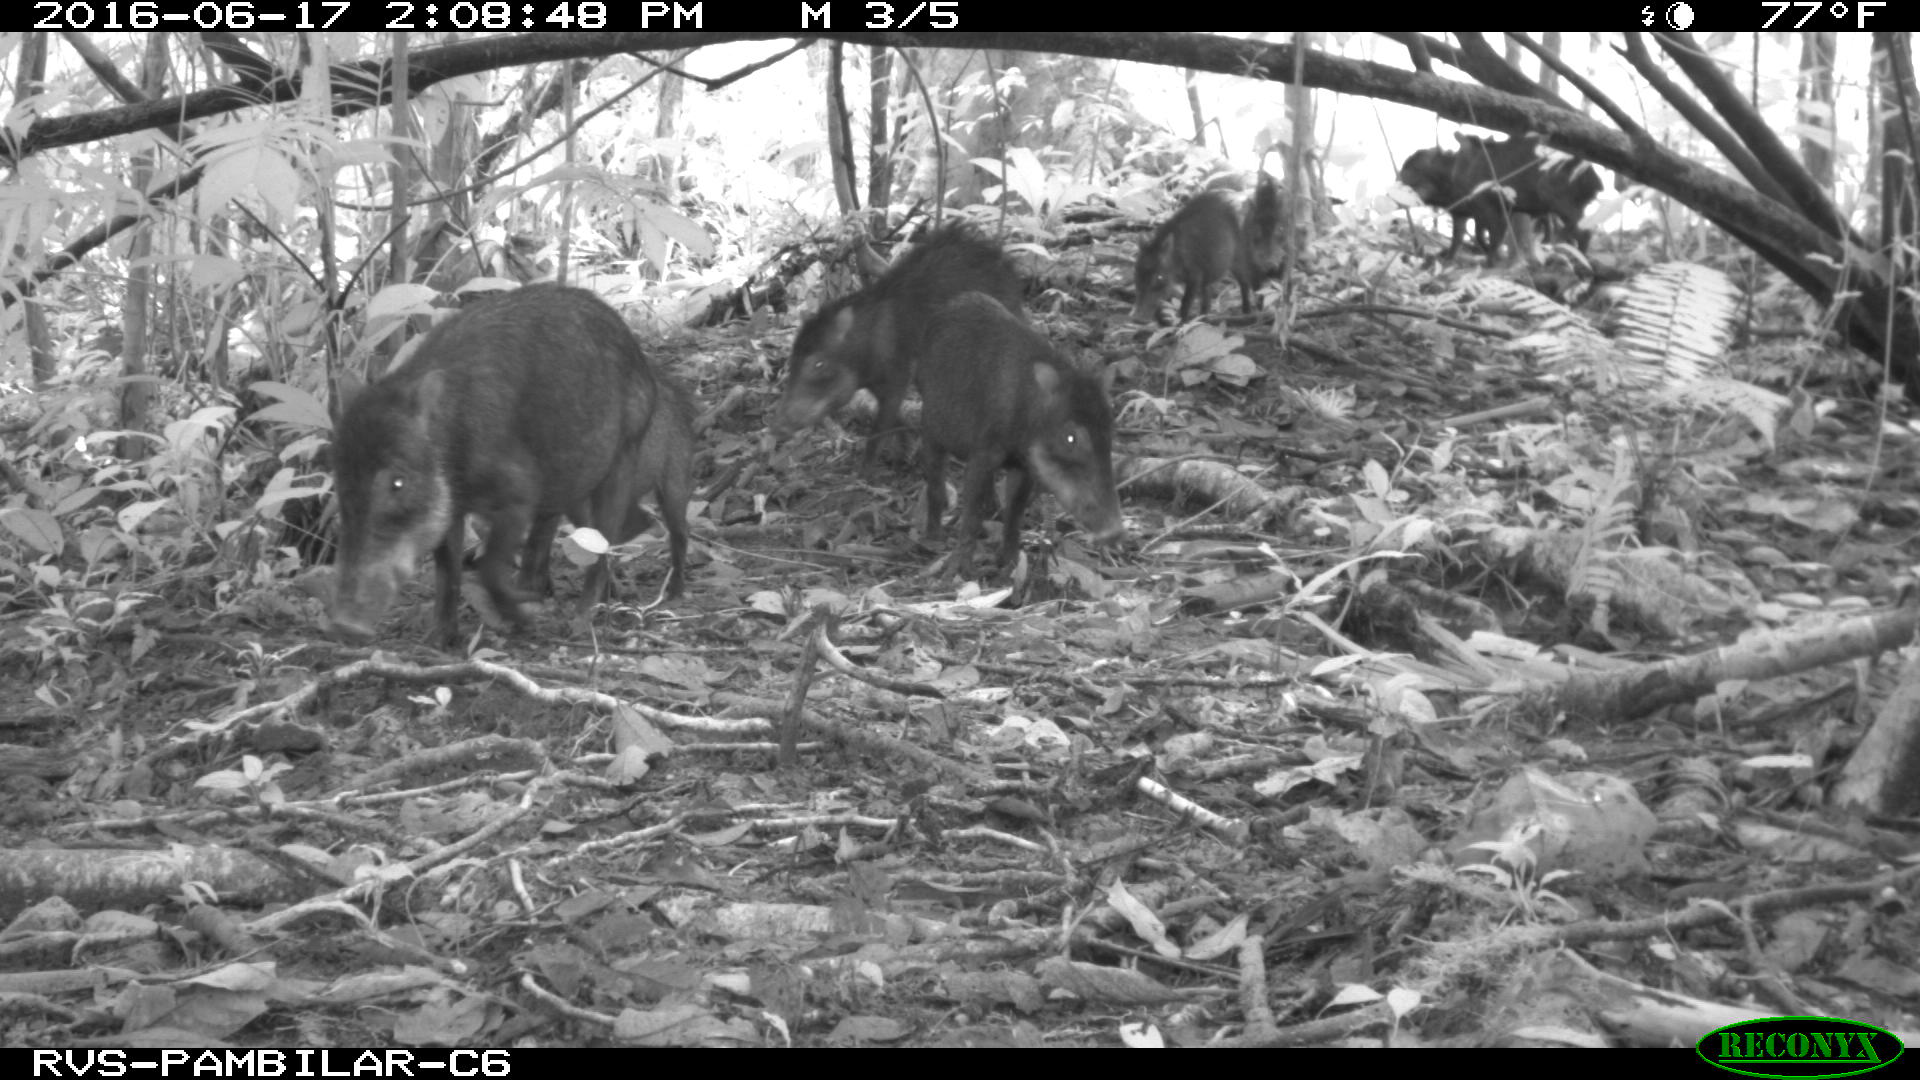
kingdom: Animalia
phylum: Chordata
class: Mammalia
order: Artiodactyla
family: Tayassuidae
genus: Tayassu
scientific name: Tayassu pecari
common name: White-lipped peccary
